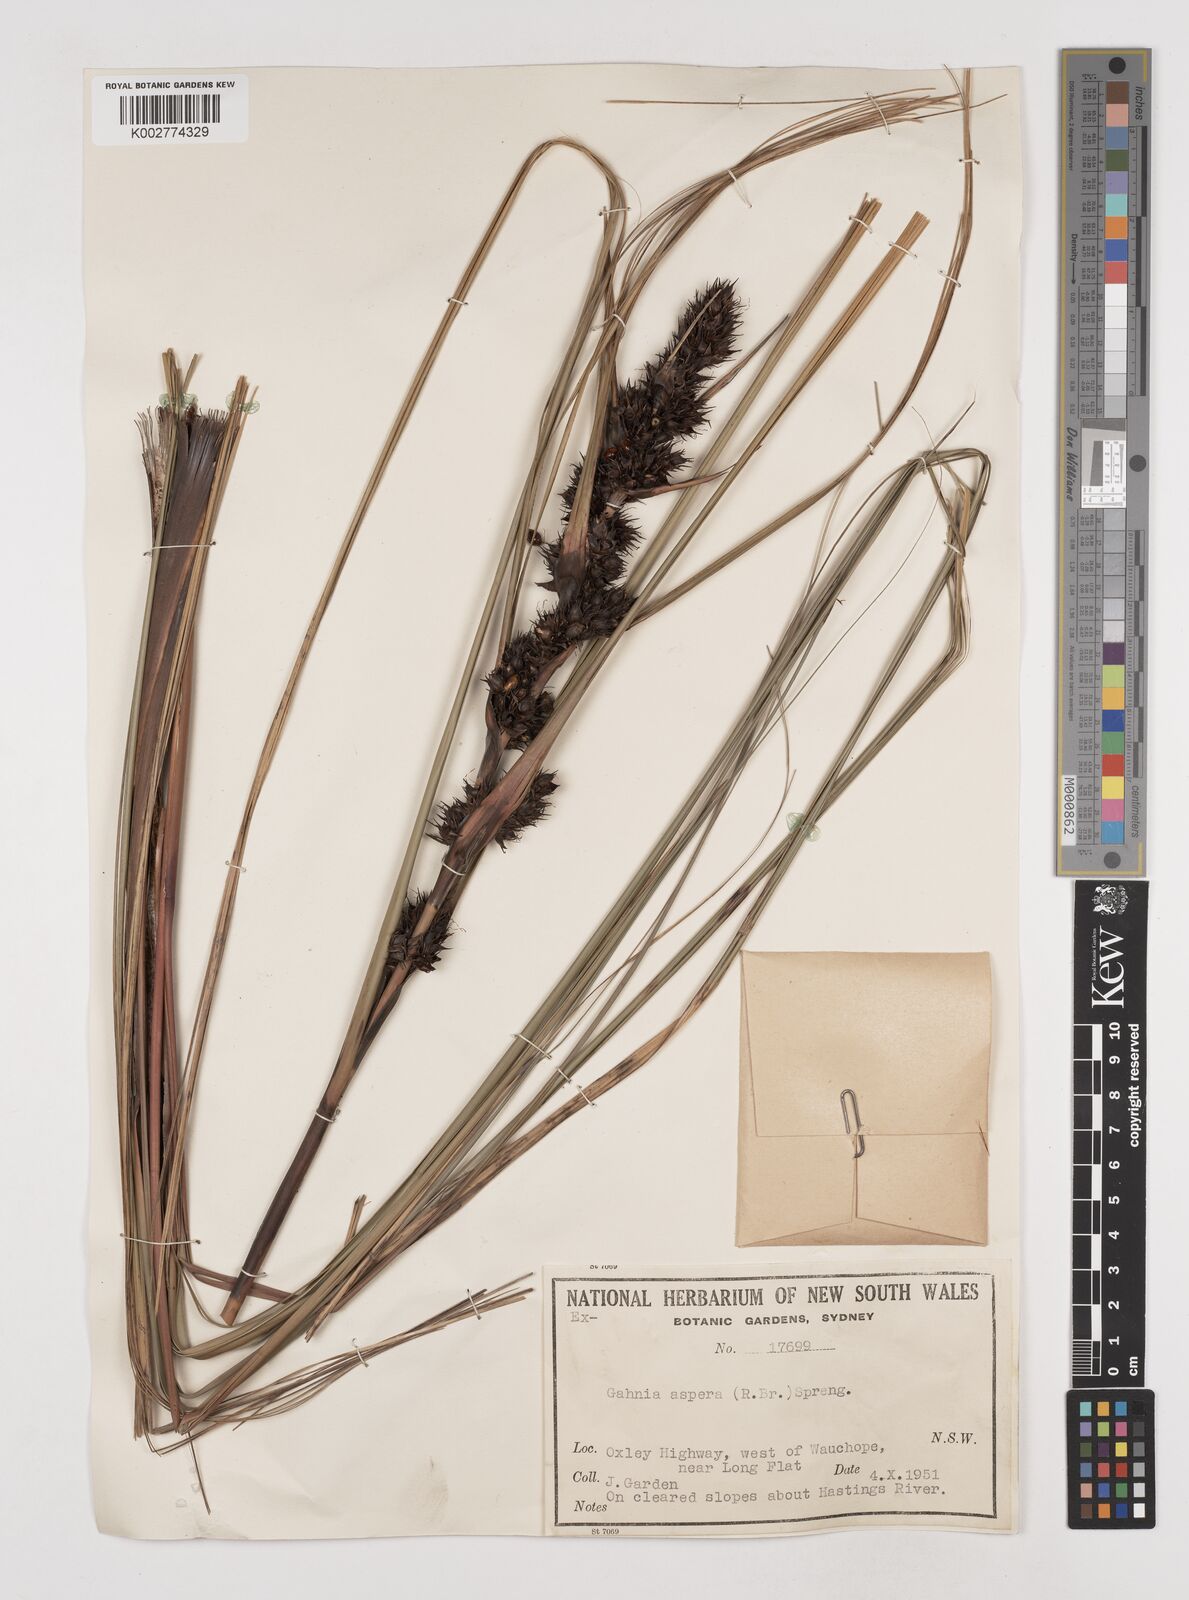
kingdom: Plantae
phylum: Tracheophyta
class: Liliopsida
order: Poales
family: Cyperaceae
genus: Gahnia
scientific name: Gahnia aspera
